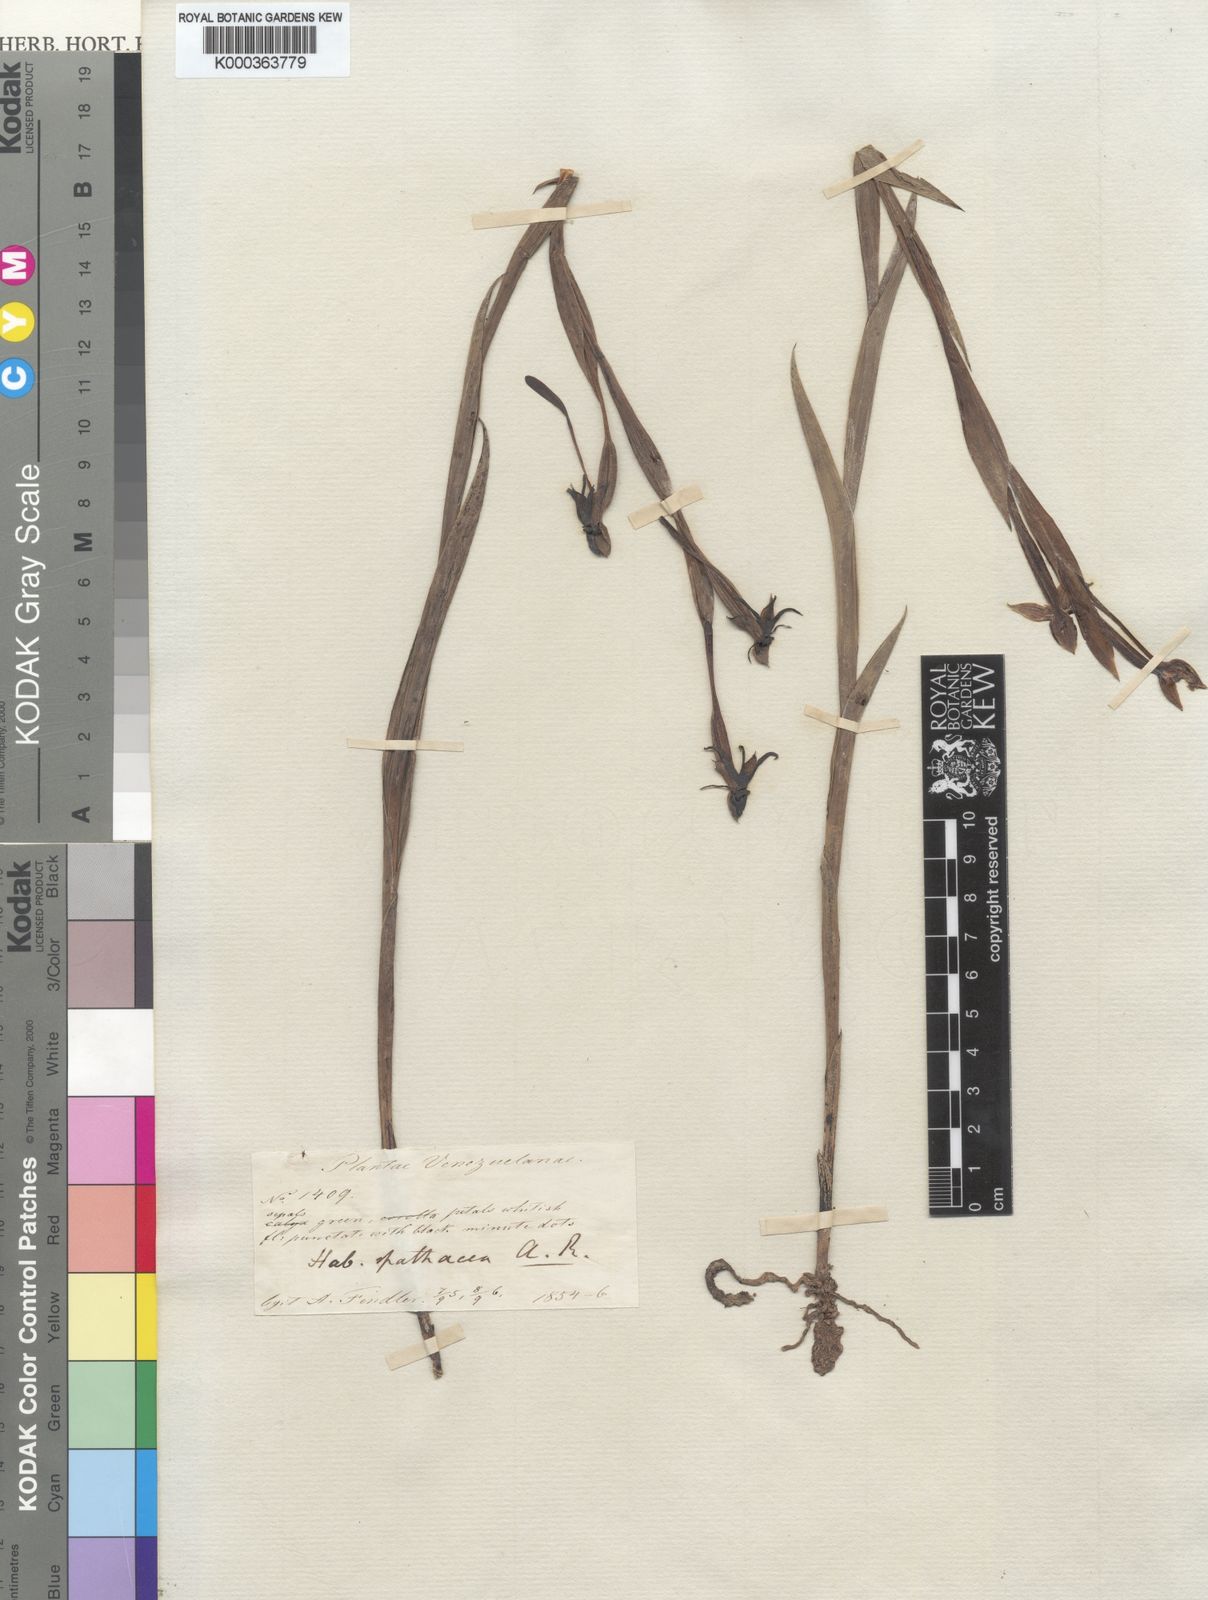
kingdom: Plantae
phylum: Tracheophyta
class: Liliopsida
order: Asparagales
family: Orchidaceae
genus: Habenaria
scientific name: Habenaria trifida
